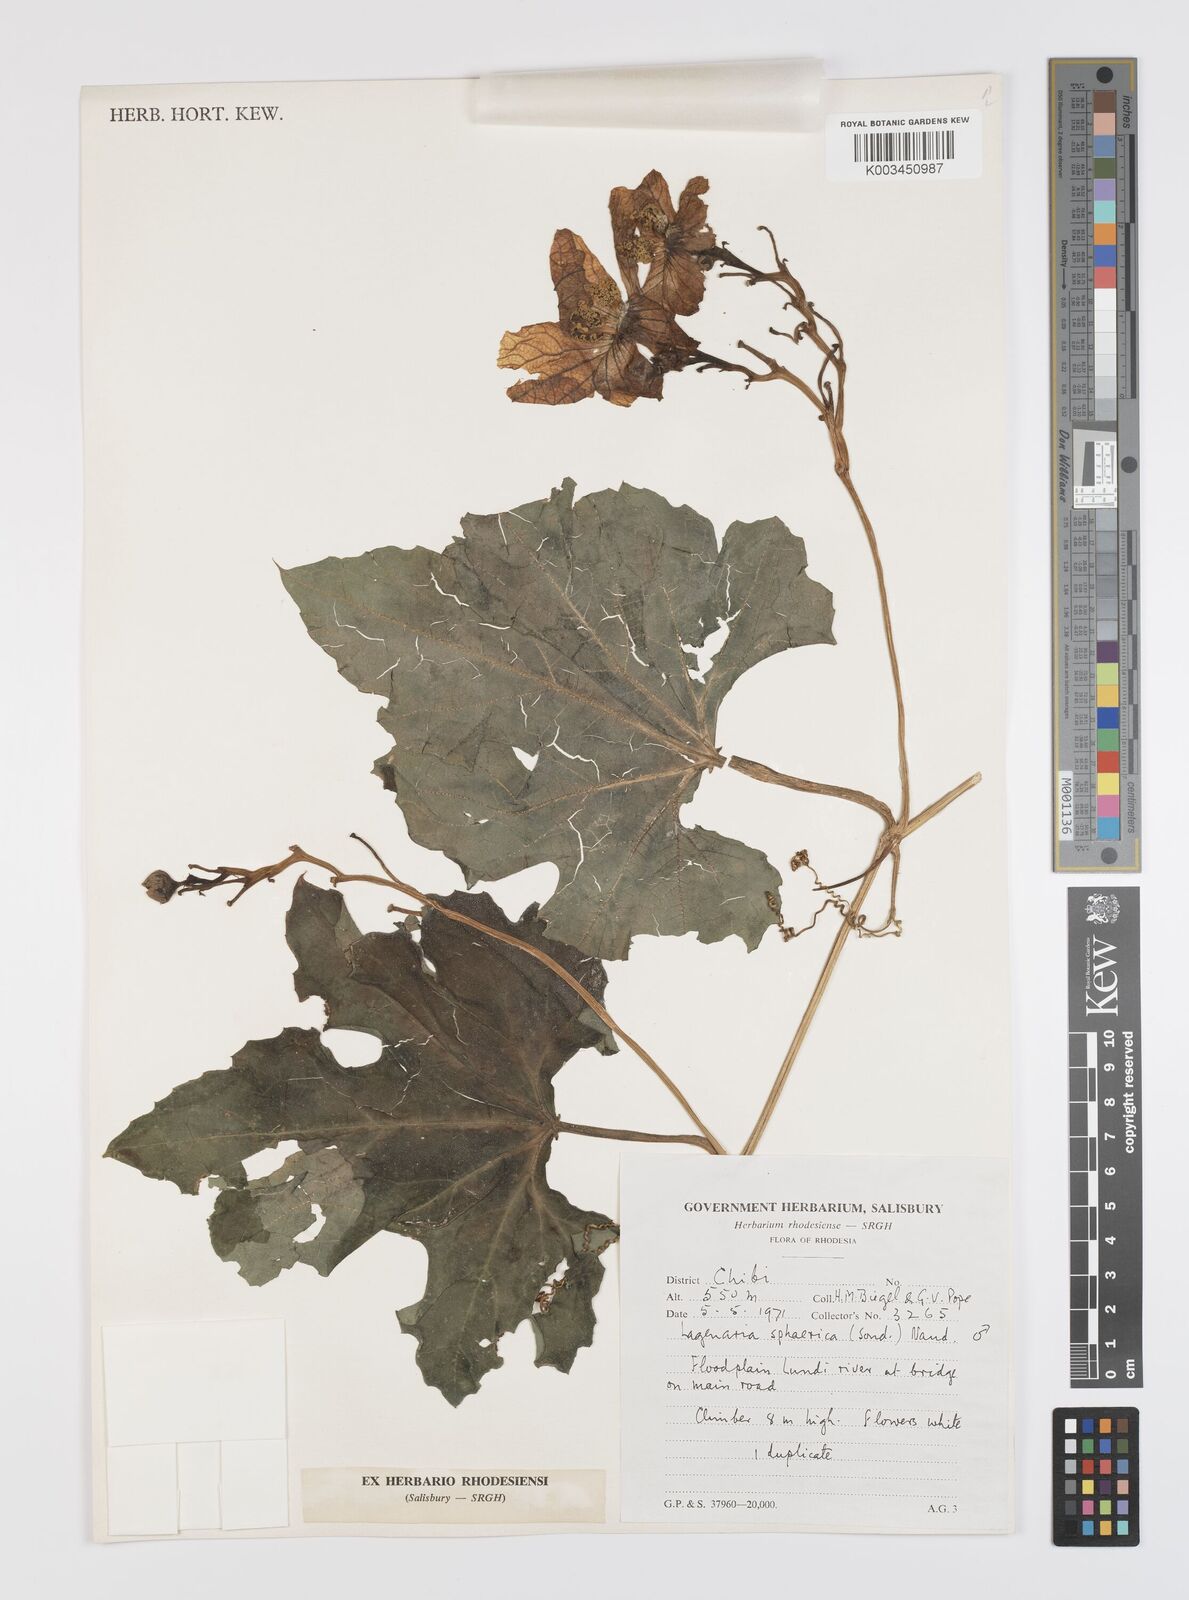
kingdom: Plantae
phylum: Tracheophyta
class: Magnoliopsida
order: Cucurbitales
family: Cucurbitaceae
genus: Lagenaria
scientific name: Lagenaria sphaerica
